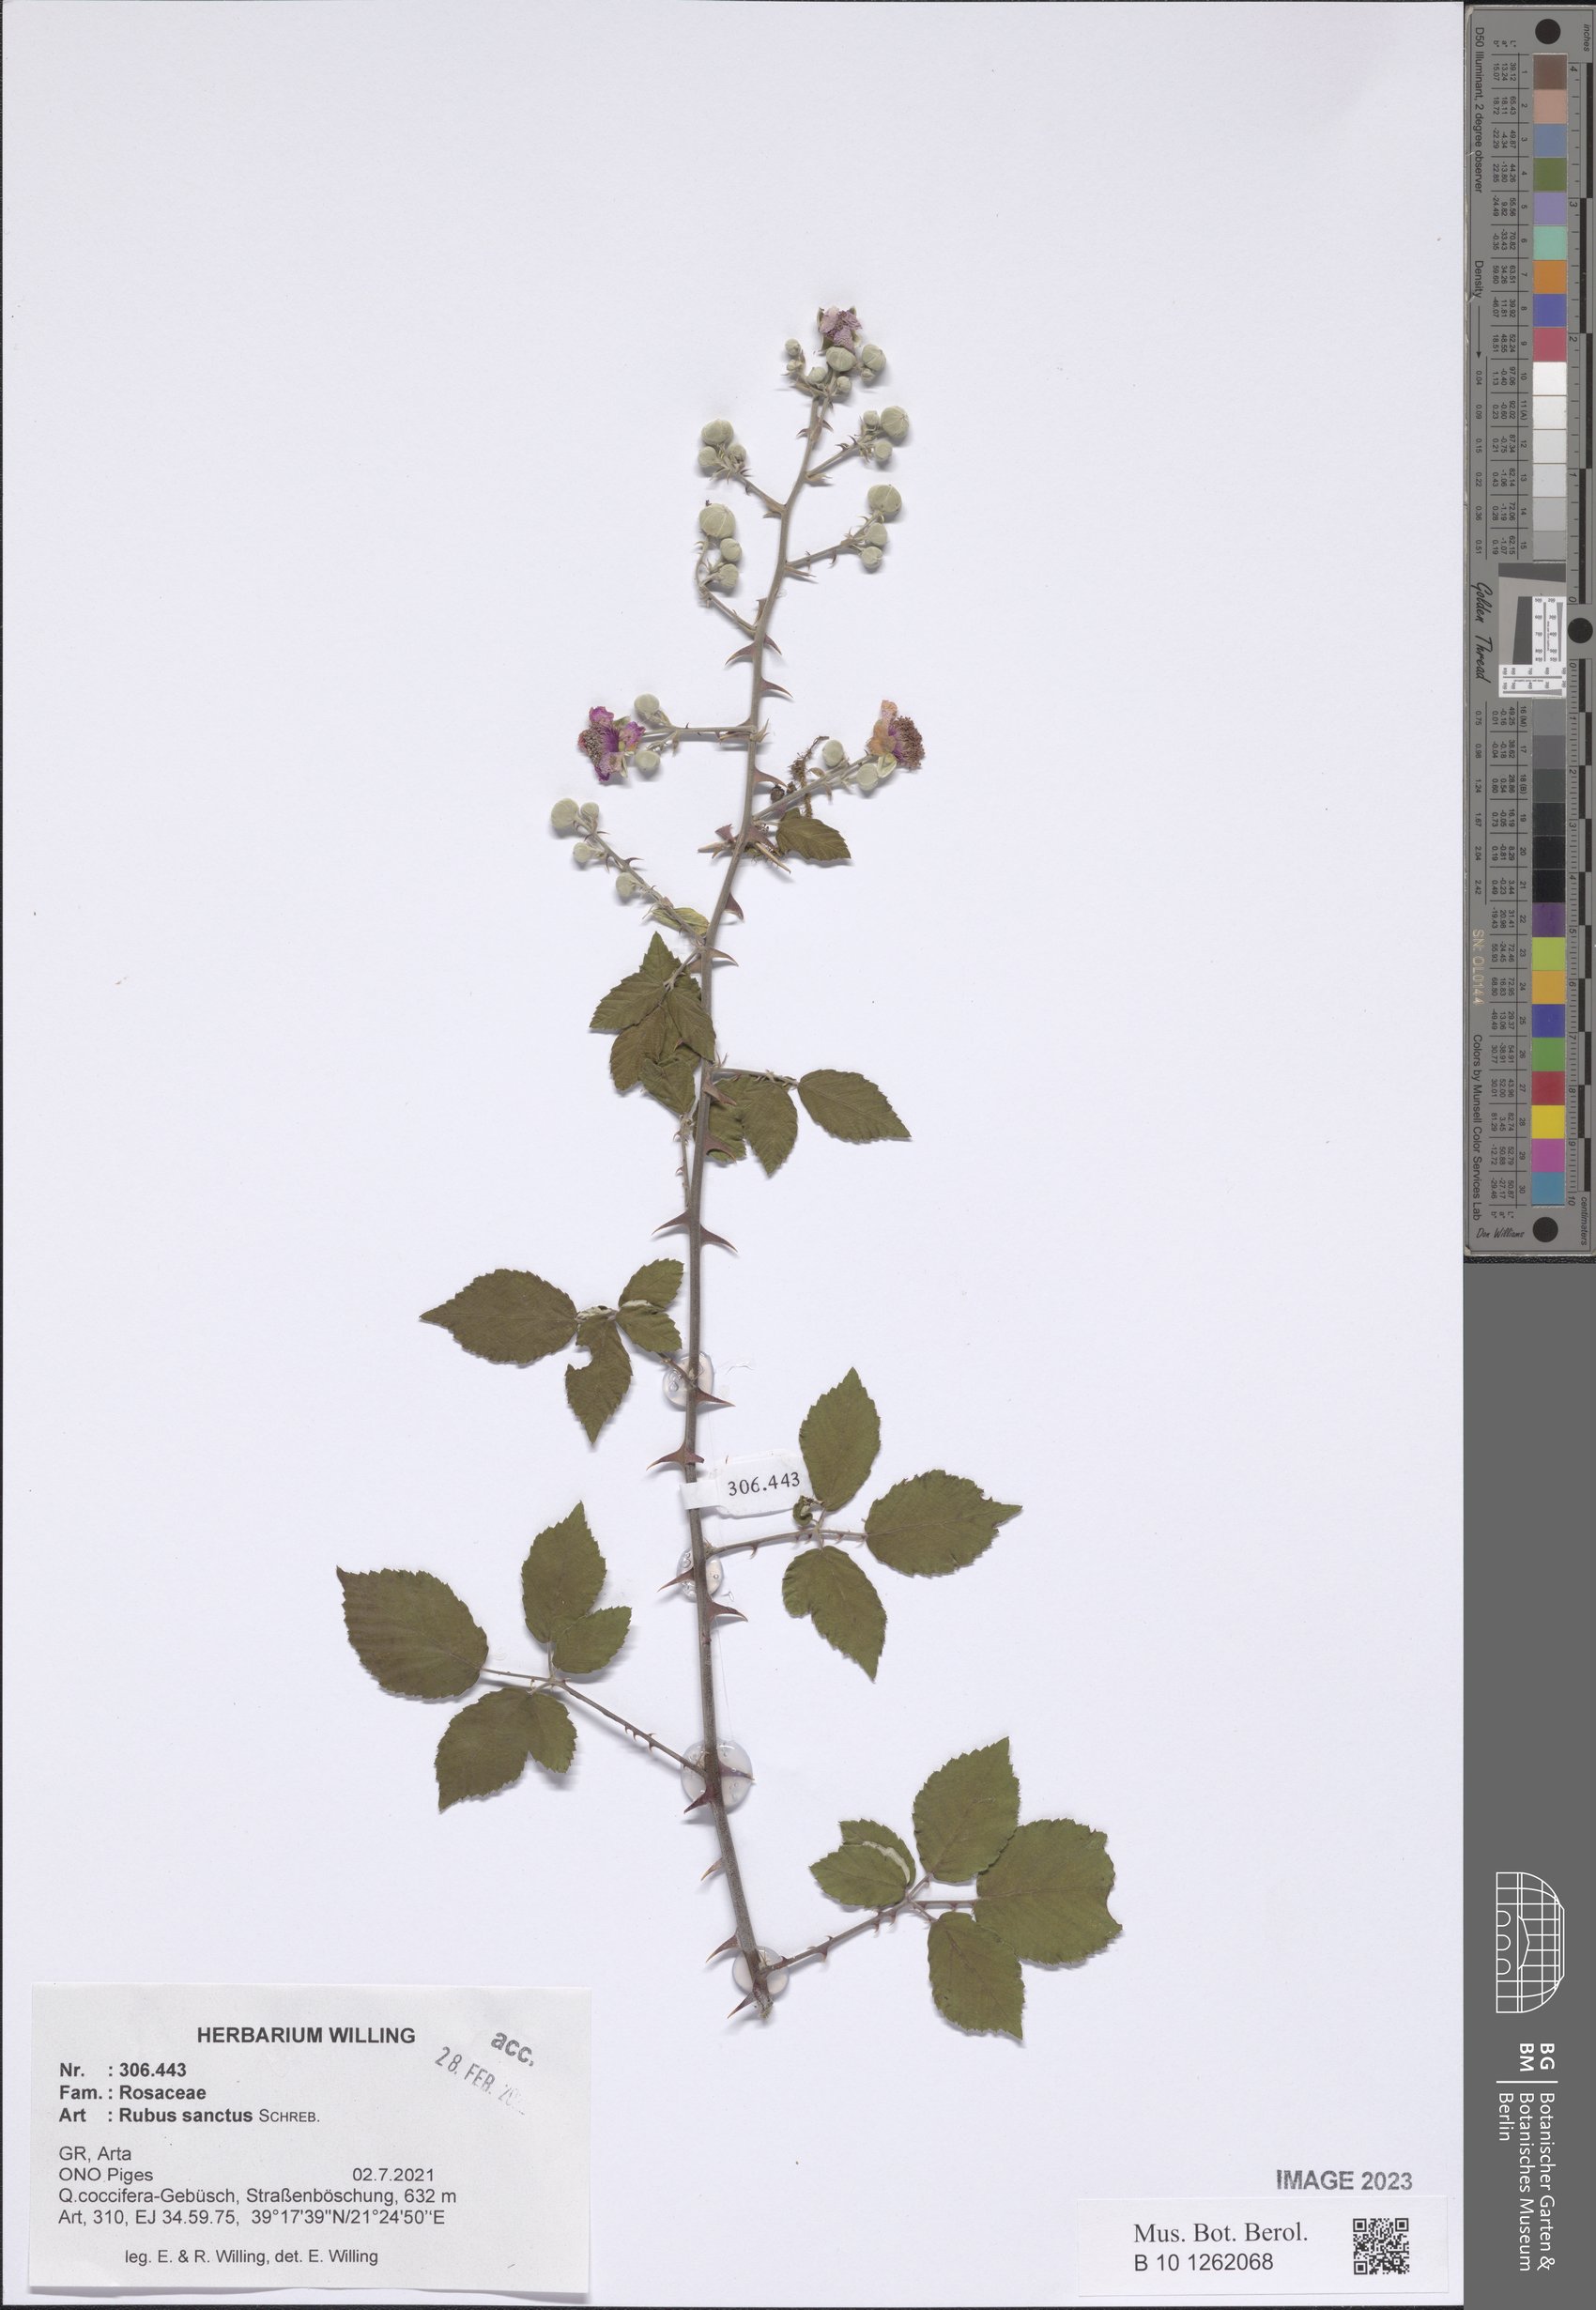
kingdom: Plantae
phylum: Tracheophyta
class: Magnoliopsida
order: Rosales
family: Rosaceae
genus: Rubus
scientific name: Rubus sanctus
